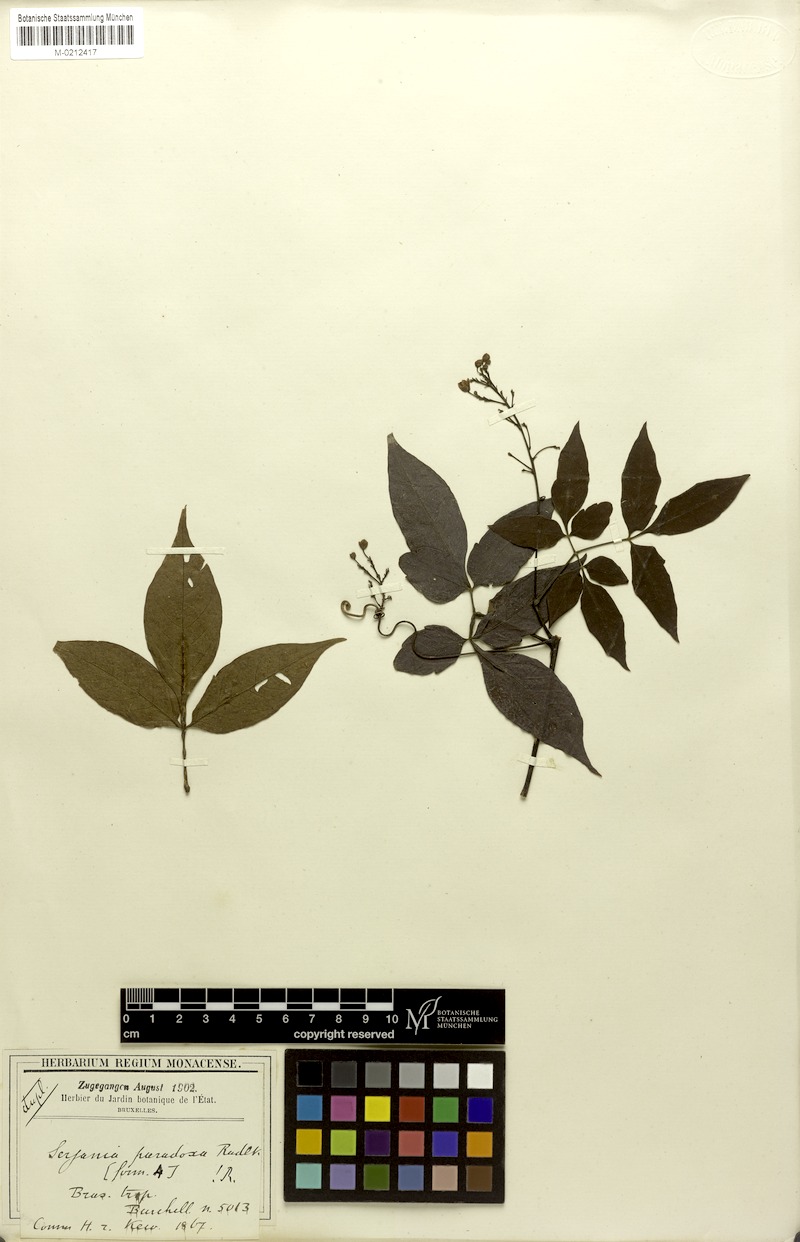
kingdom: Plantae
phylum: Tracheophyta
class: Magnoliopsida
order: Sapindales
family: Sapindaceae
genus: Serjania
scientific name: Serjania paradoxa
